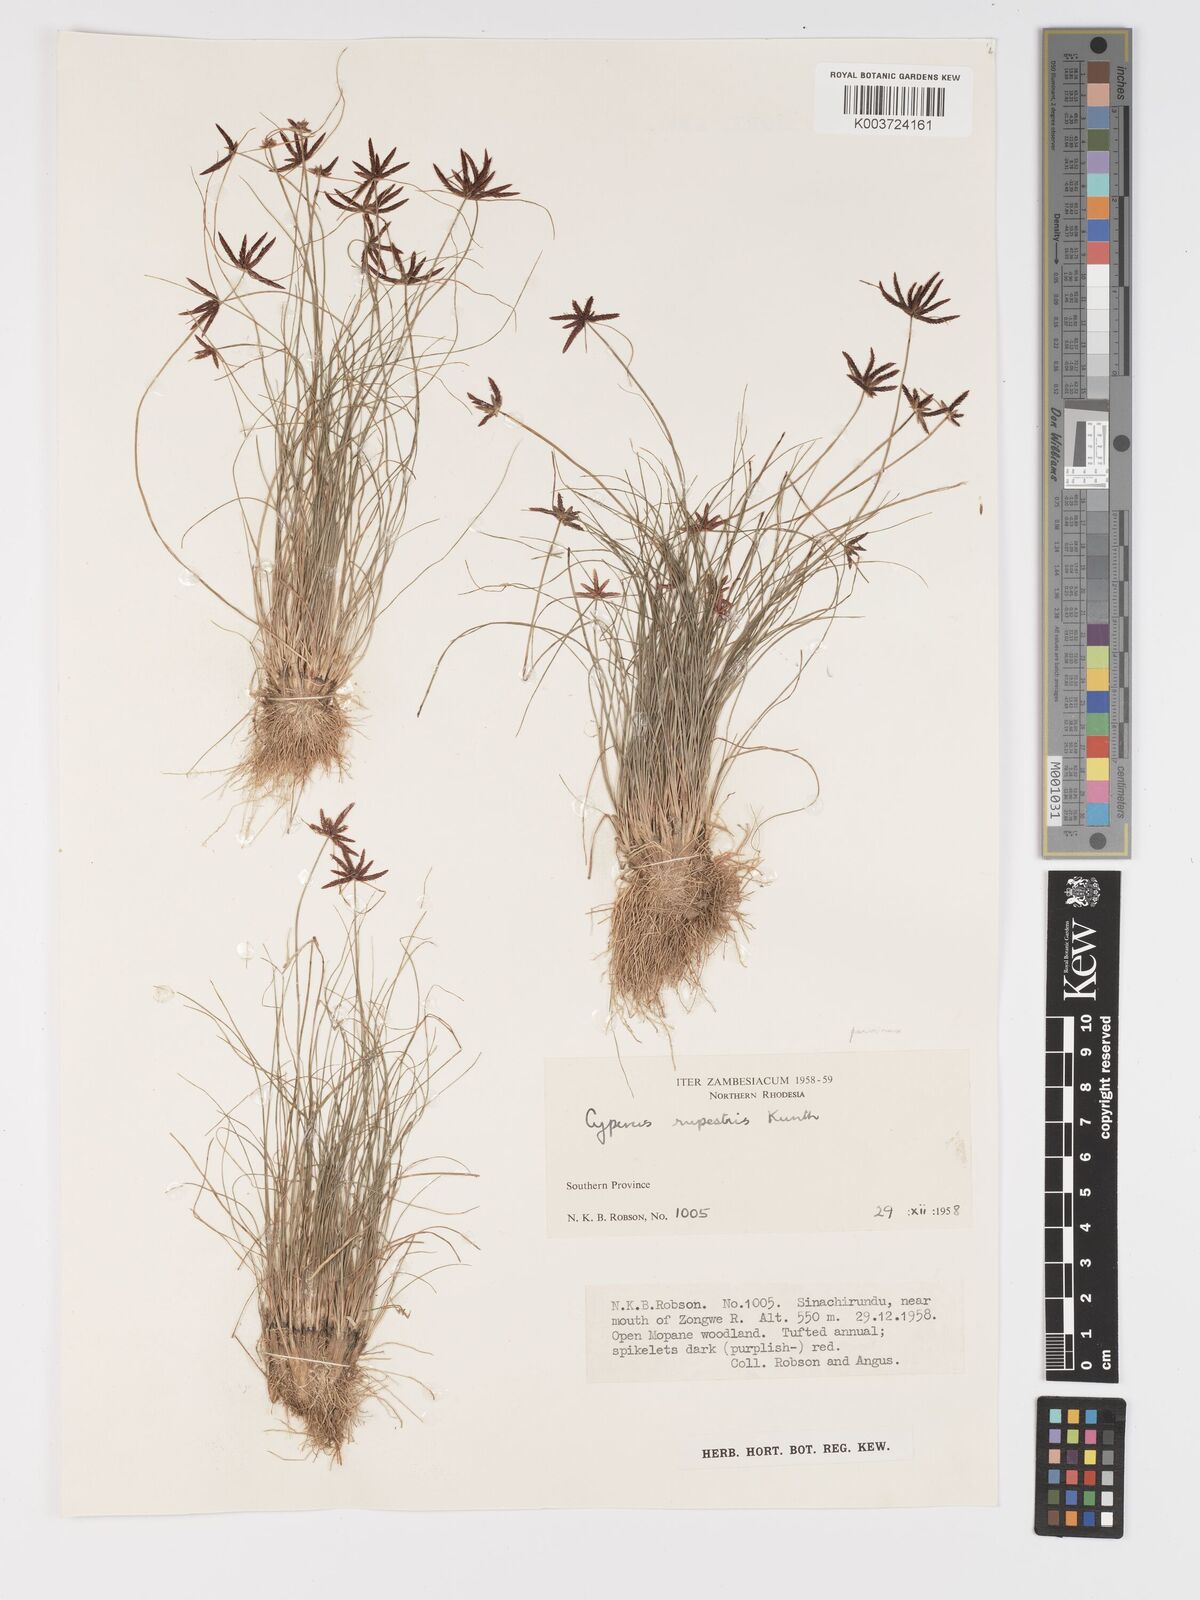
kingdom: Plantae
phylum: Tracheophyta
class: Liliopsida
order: Poales
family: Cyperaceae
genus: Cyperus
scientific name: Cyperus rupestris
